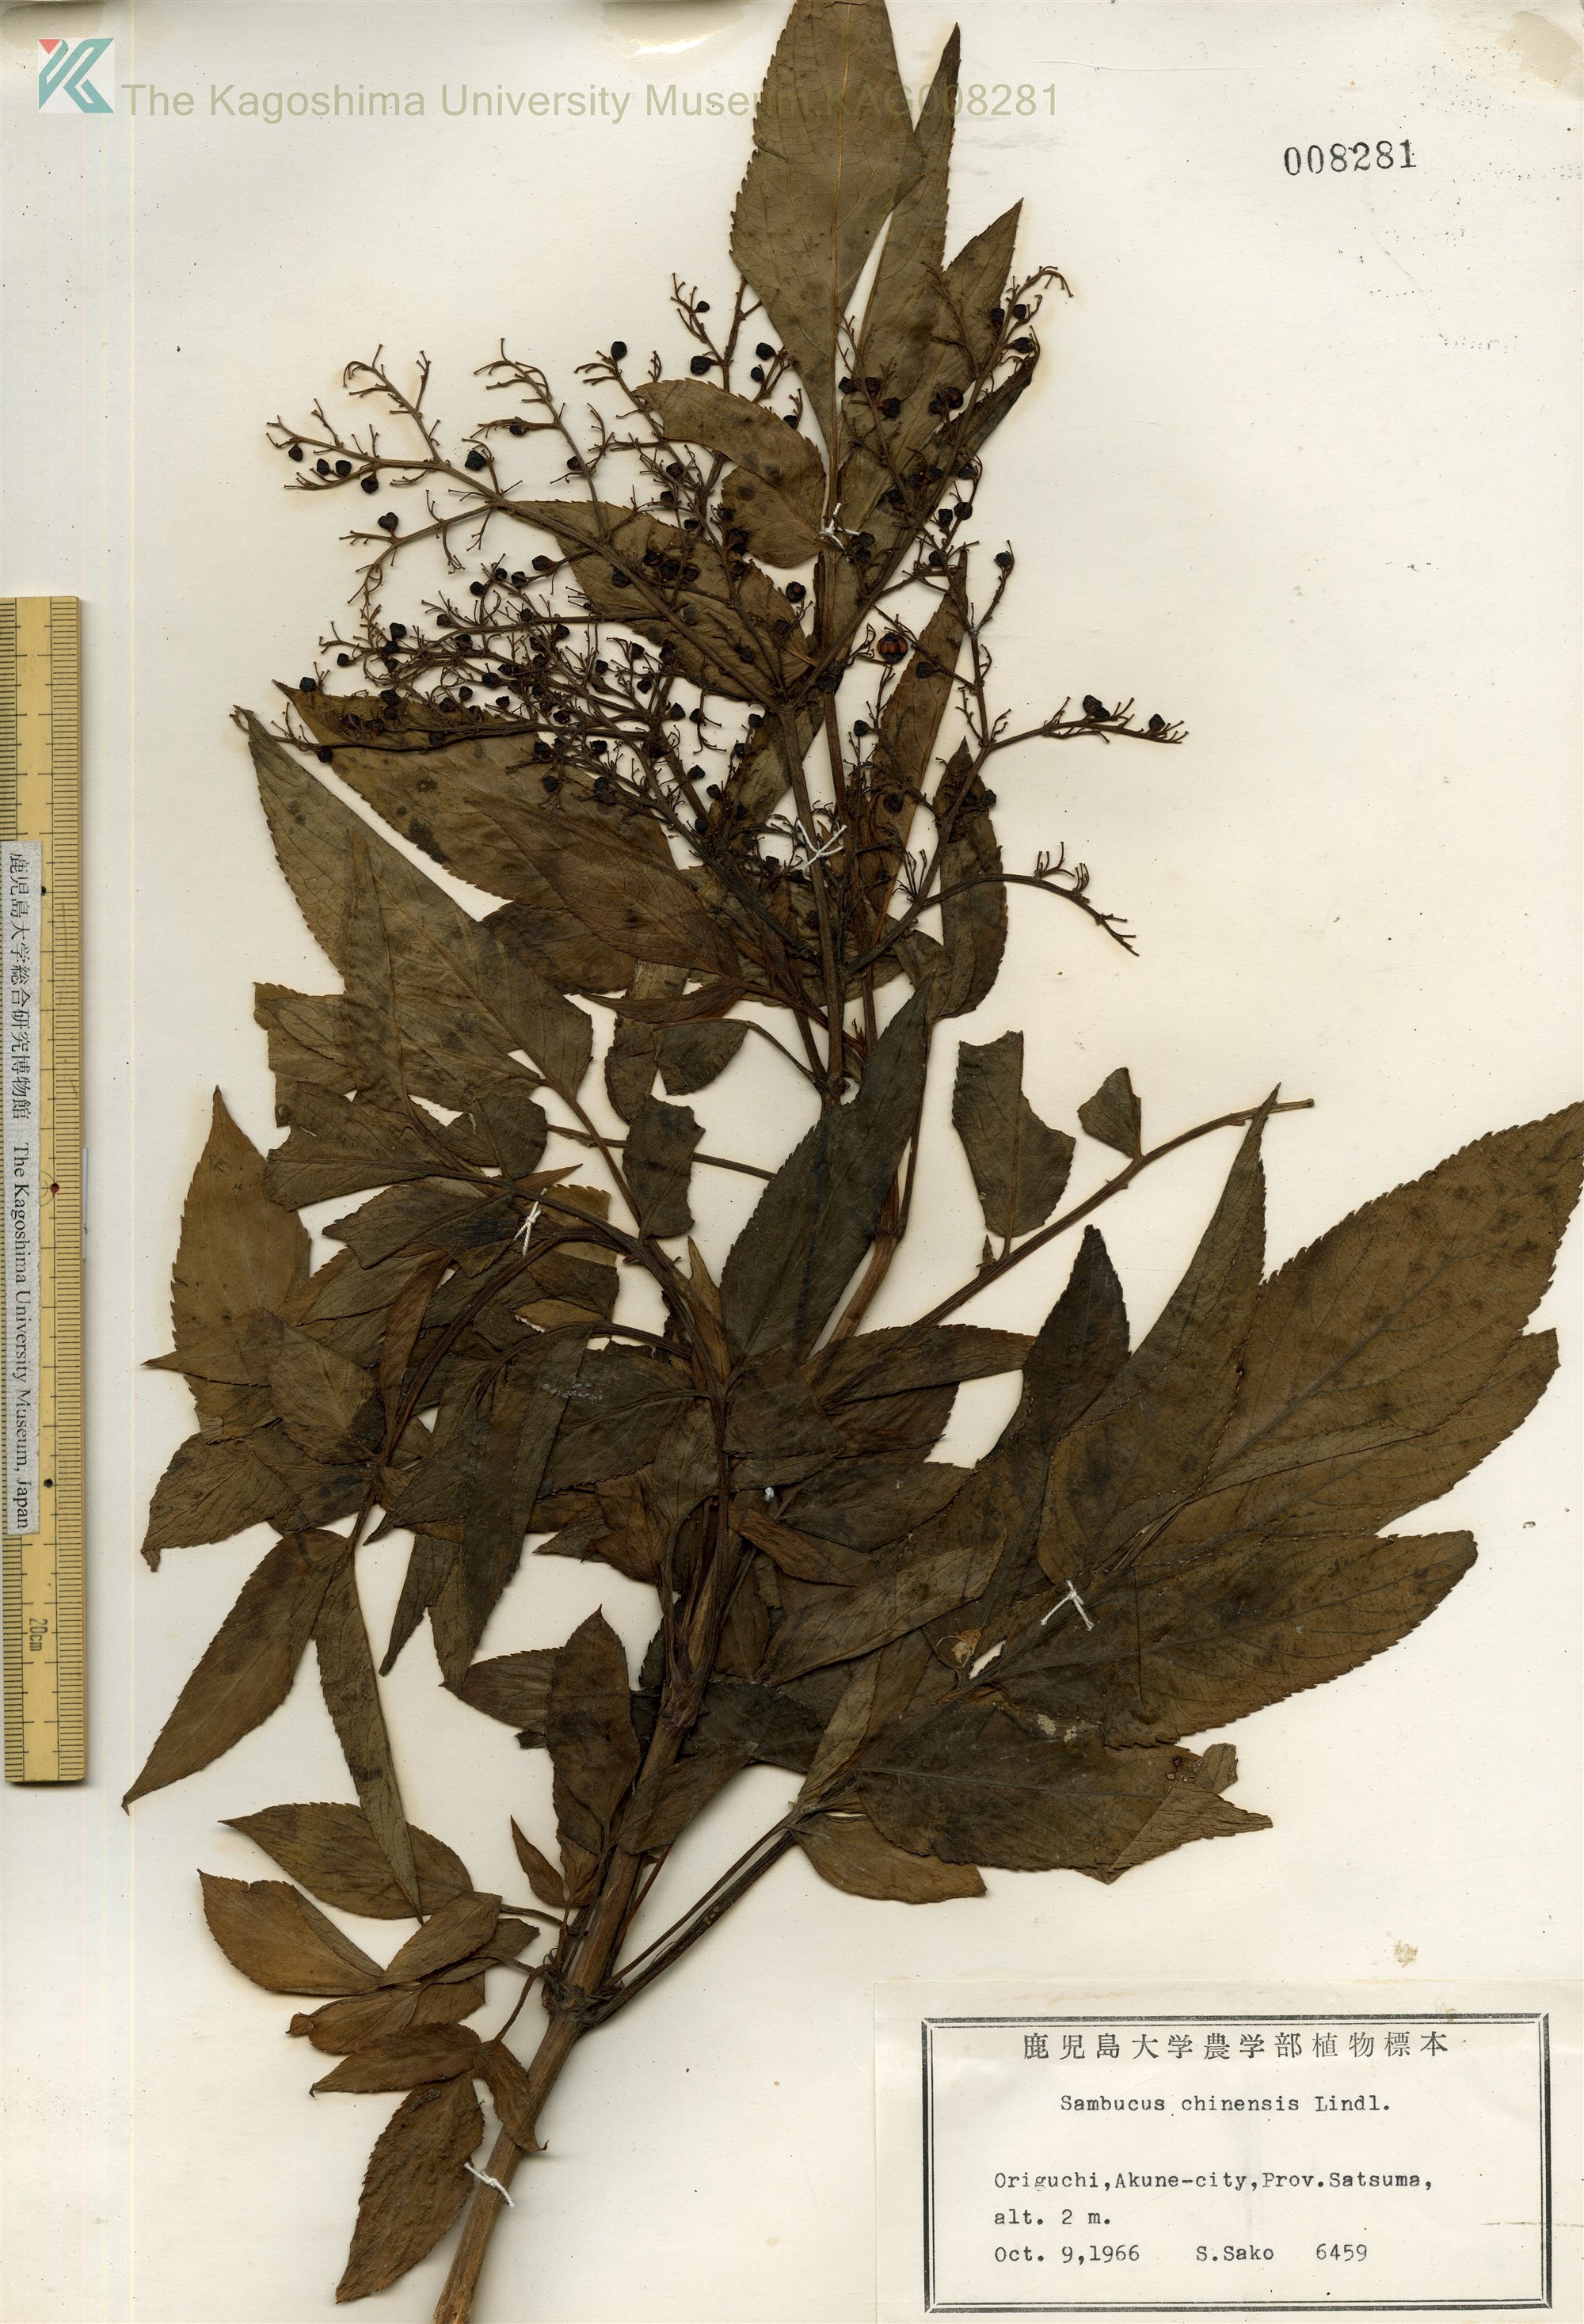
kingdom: Plantae
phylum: Tracheophyta
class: Magnoliopsida
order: Dipsacales
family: Viburnaceae
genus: Sambucus
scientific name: Sambucus javanica
